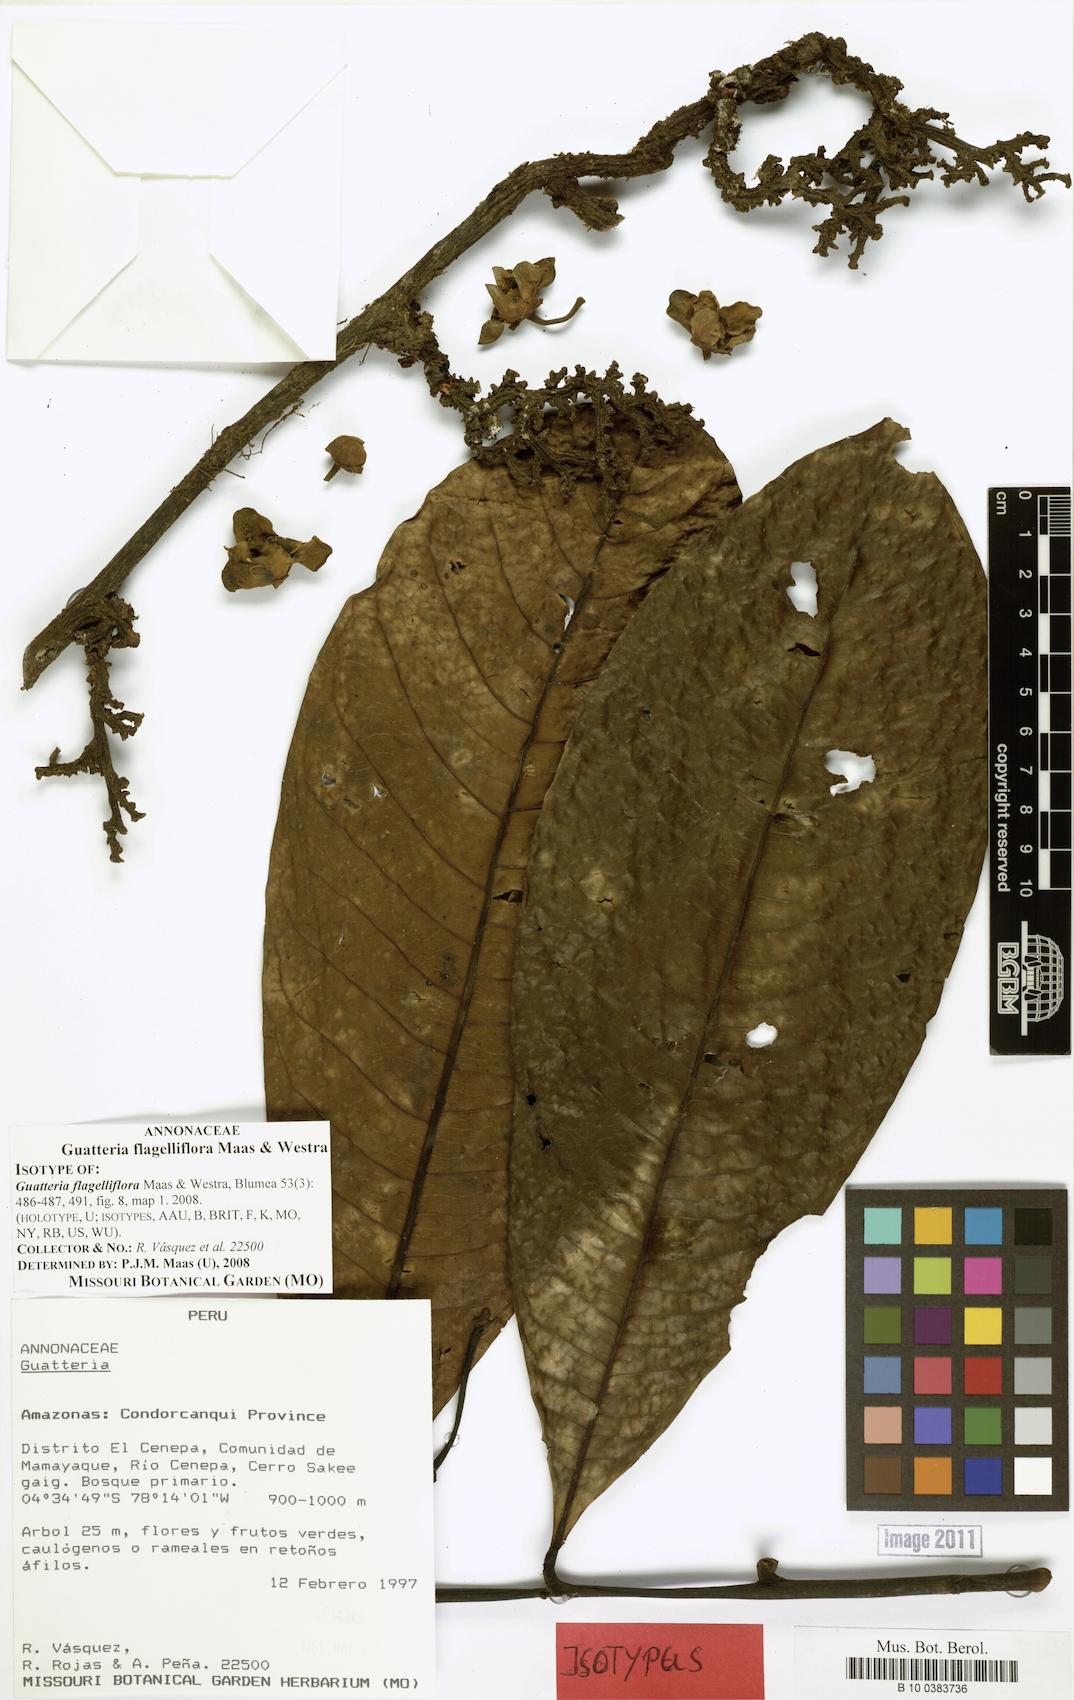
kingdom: Plantae
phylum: Tracheophyta
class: Magnoliopsida
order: Magnoliales
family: Annonaceae
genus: Guatteria
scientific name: Guatteria flagelliflora
